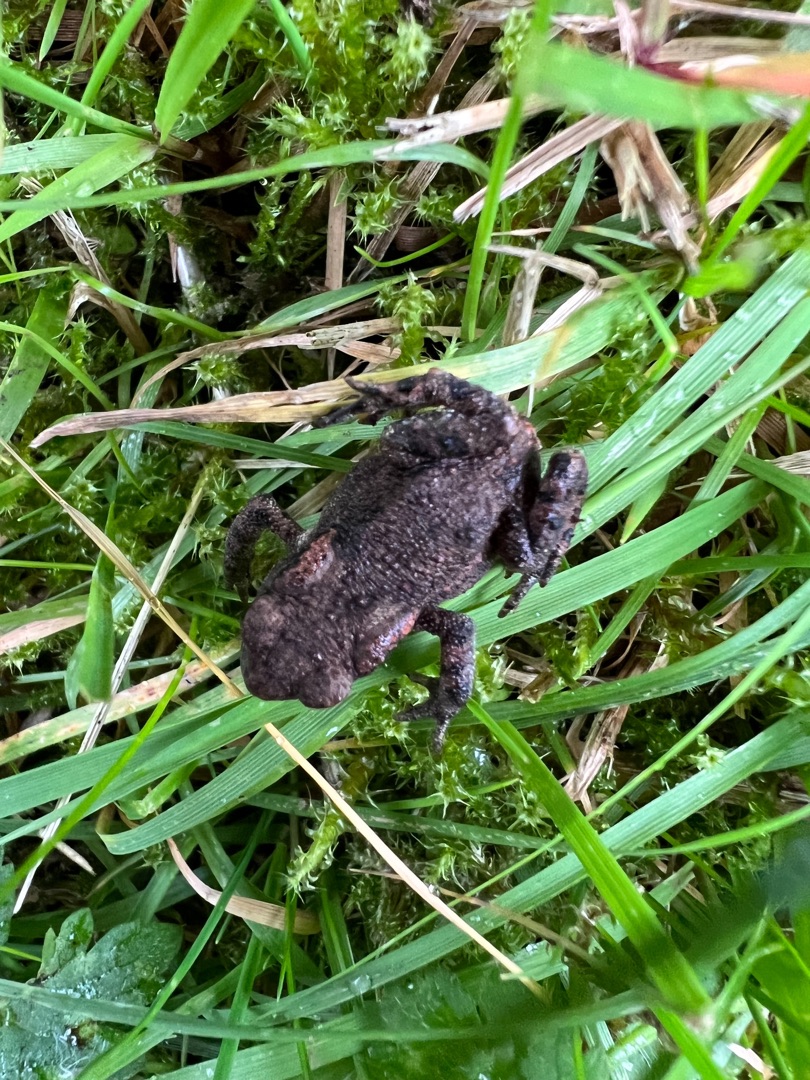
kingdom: Animalia
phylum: Chordata
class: Amphibia
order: Anura
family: Bufonidae
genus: Bufo
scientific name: Bufo bufo
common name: Skrubtudse
